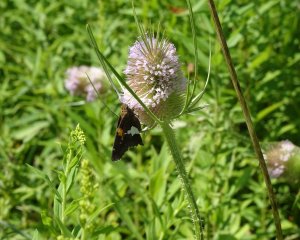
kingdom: Animalia
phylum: Arthropoda
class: Insecta
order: Lepidoptera
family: Hesperiidae
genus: Epargyreus
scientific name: Epargyreus clarus
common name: Silver-spotted Skipper
